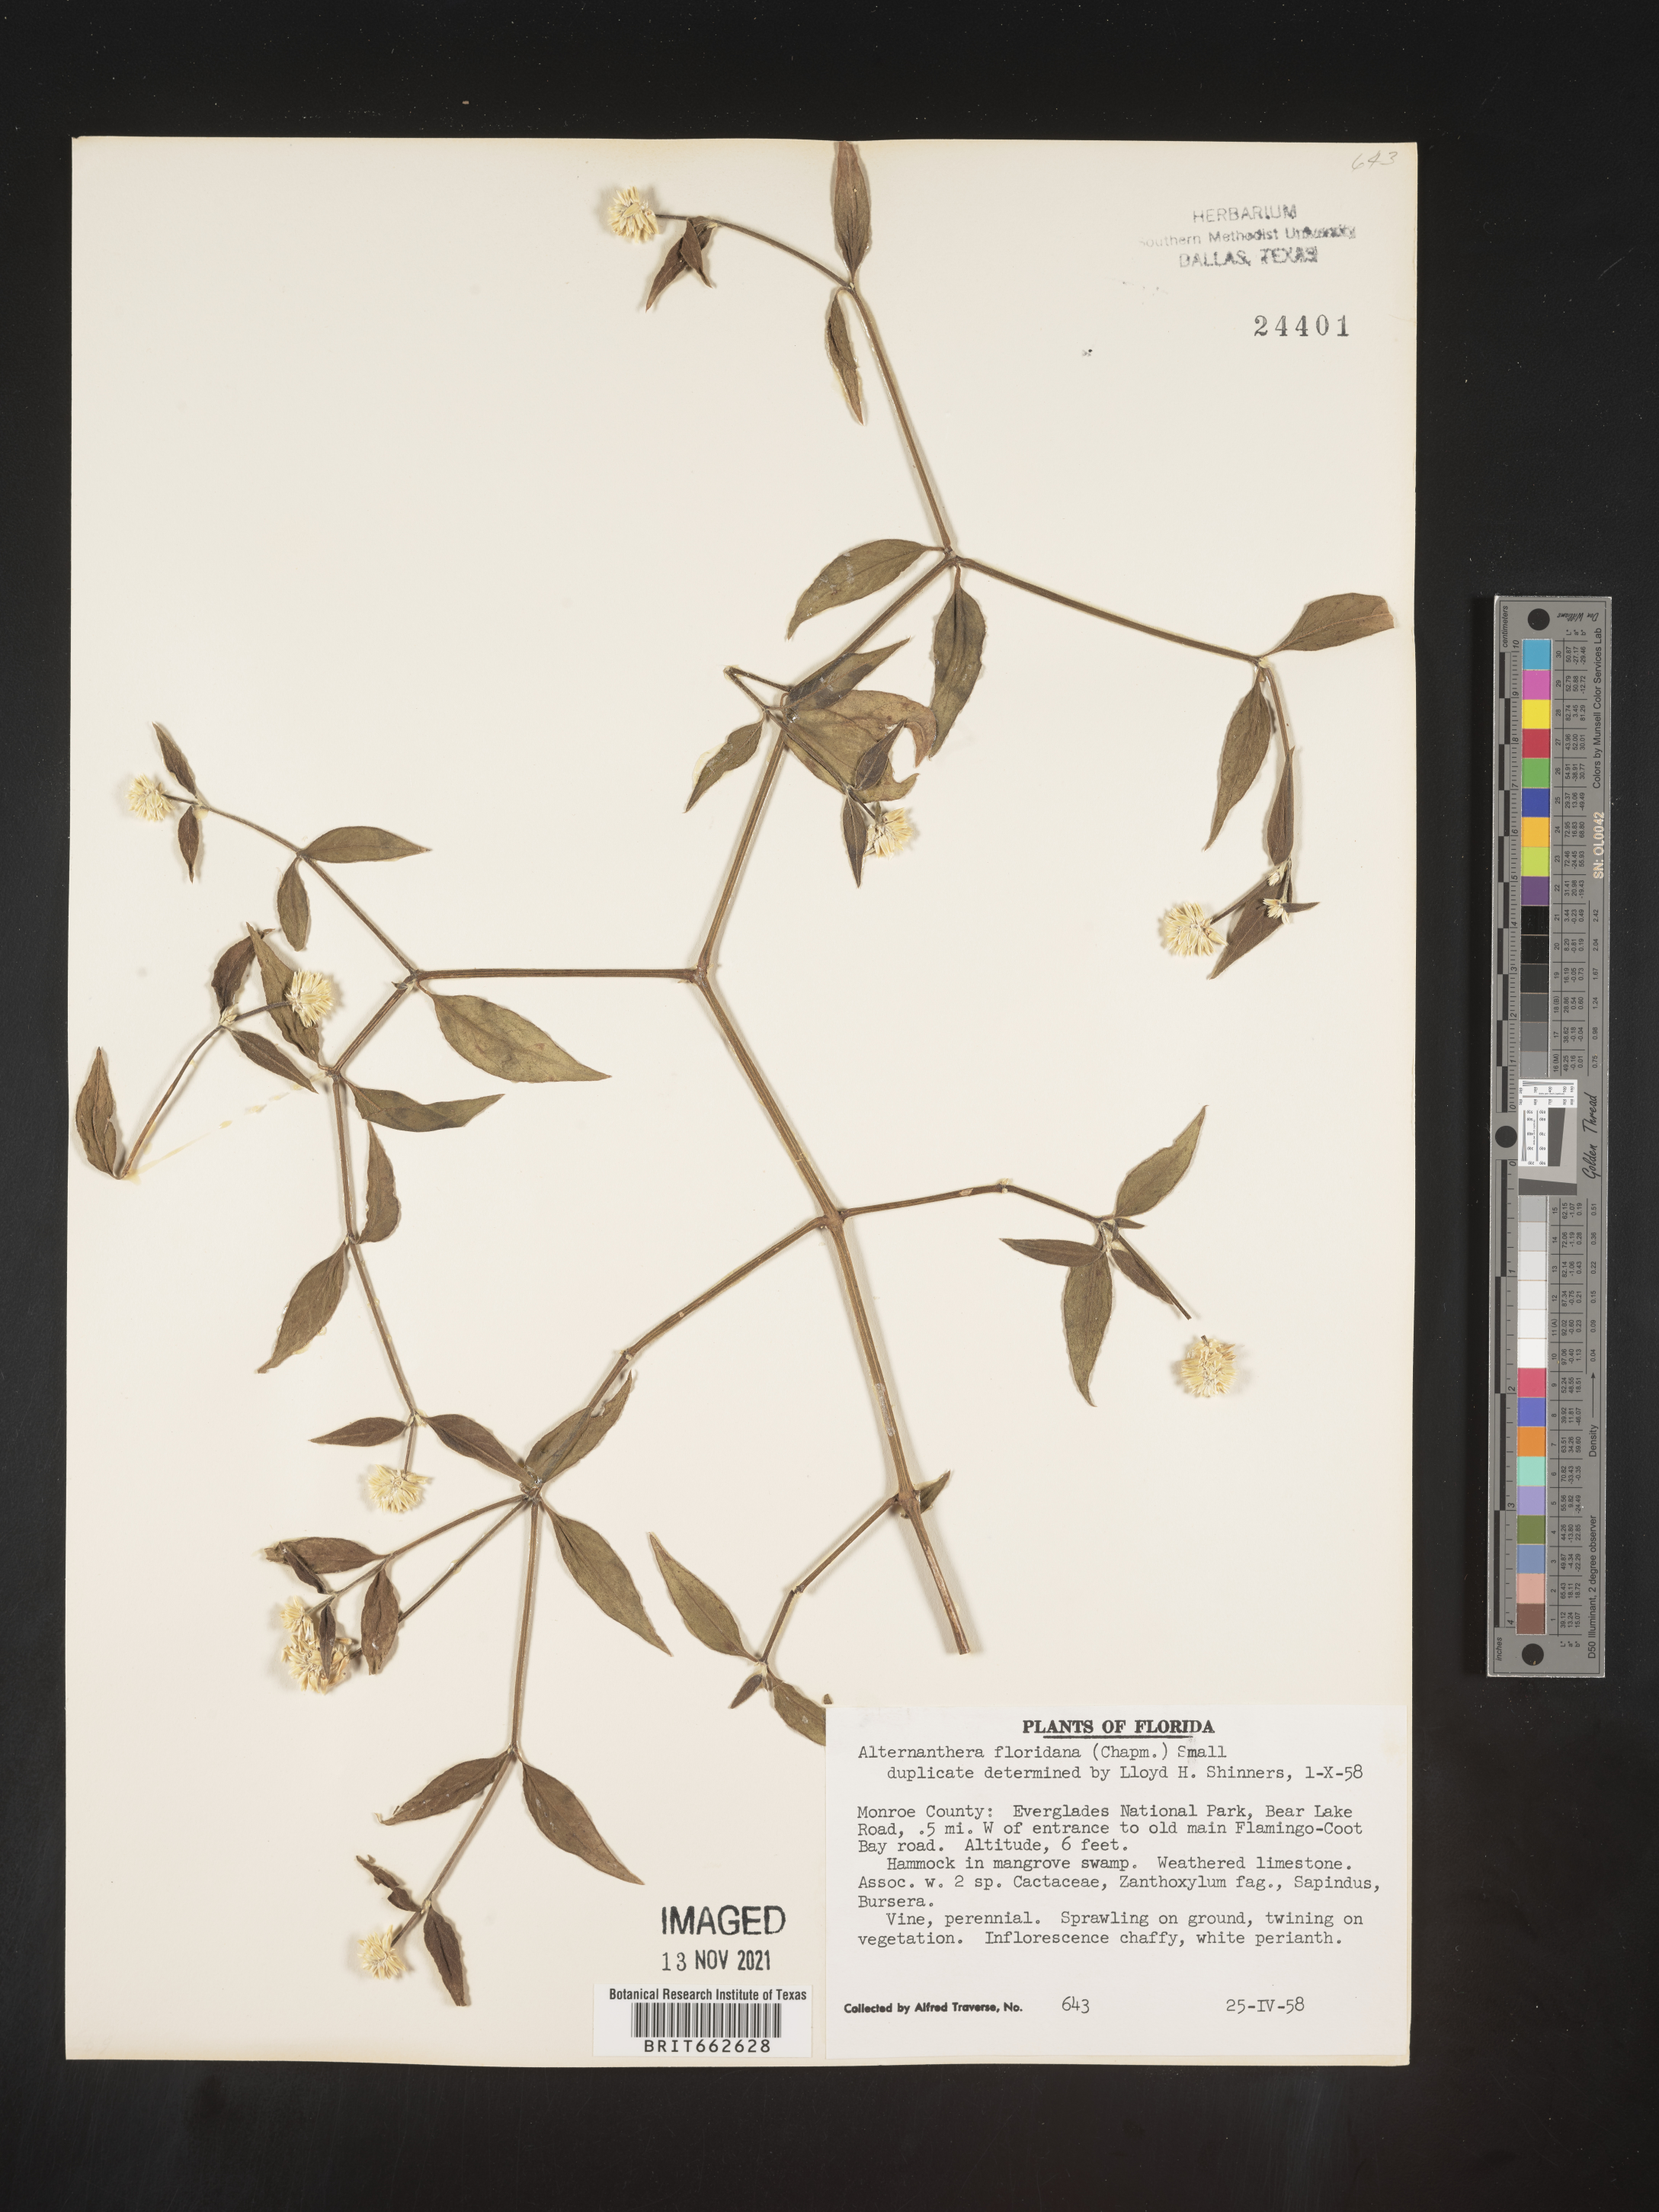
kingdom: Plantae
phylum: Tracheophyta
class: Magnoliopsida
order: Caryophyllales
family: Amaranthaceae
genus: Alternanthera
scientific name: Alternanthera ramosissima
